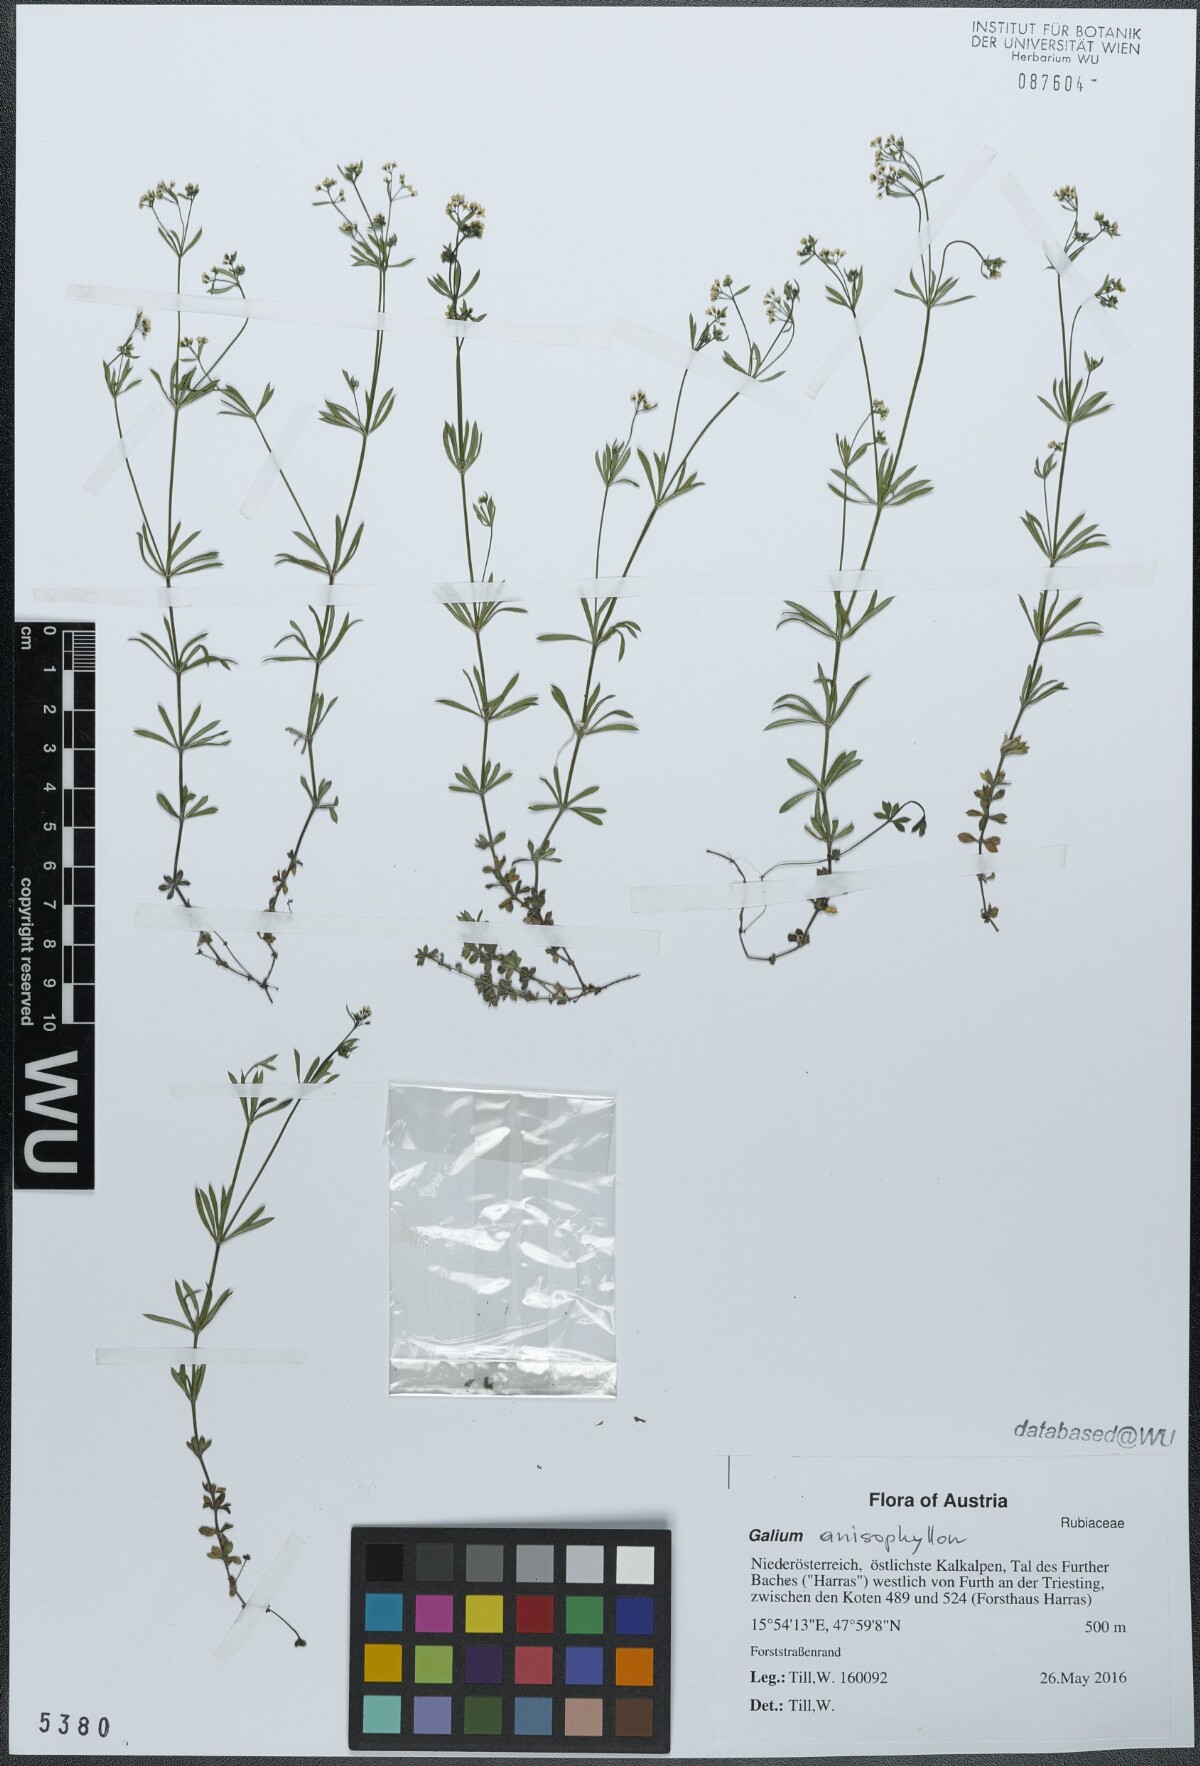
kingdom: Plantae
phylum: Tracheophyta
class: Magnoliopsida
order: Gentianales
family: Rubiaceae
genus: Galium
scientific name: Galium anisophyllon
